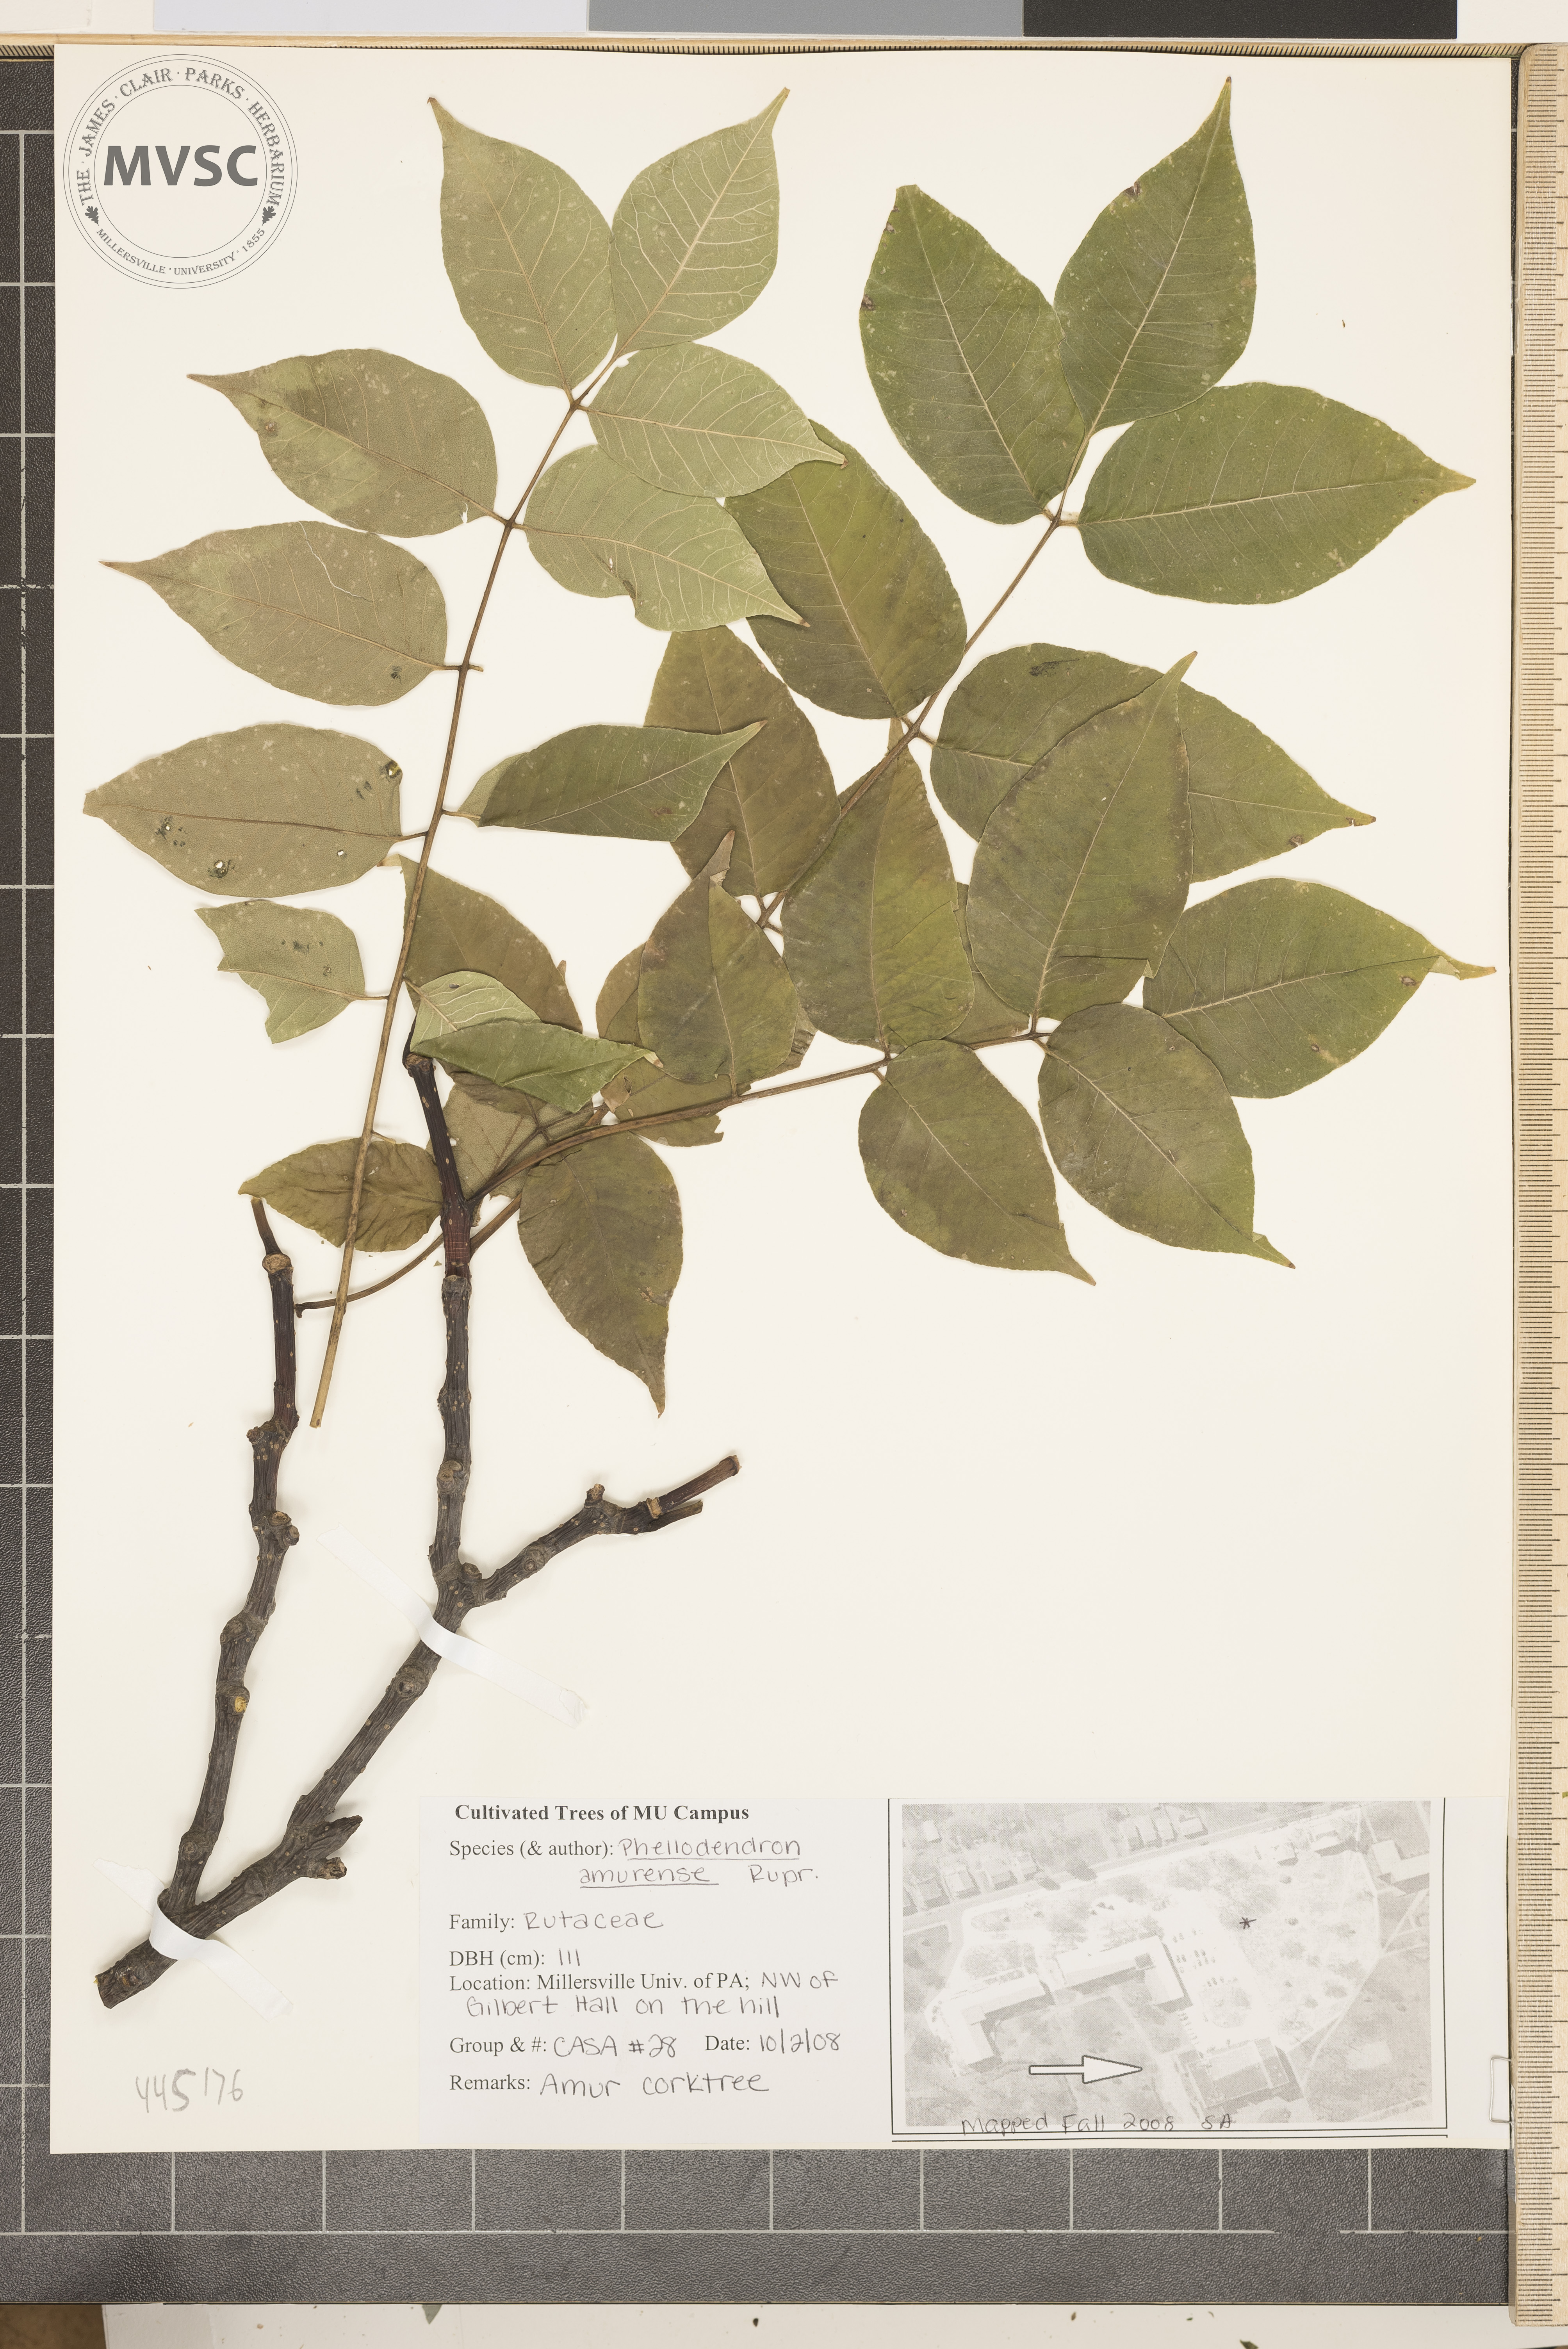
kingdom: Plantae
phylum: Tracheophyta
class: Magnoliopsida
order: Sapindales
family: Rutaceae
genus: Phellodendron
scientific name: Phellodendron amurense
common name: Amur corktree
